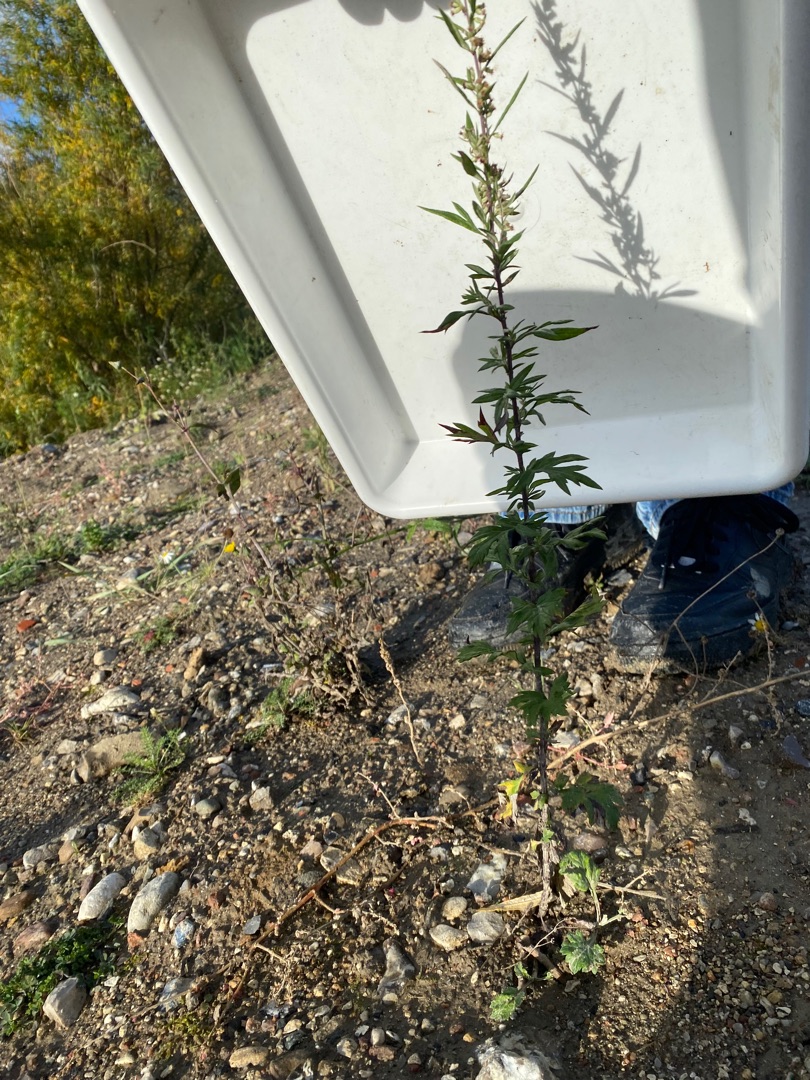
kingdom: Plantae
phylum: Tracheophyta
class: Magnoliopsida
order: Asterales
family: Asteraceae
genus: Artemisia
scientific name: Artemisia vulgaris
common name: Grå-bynke
